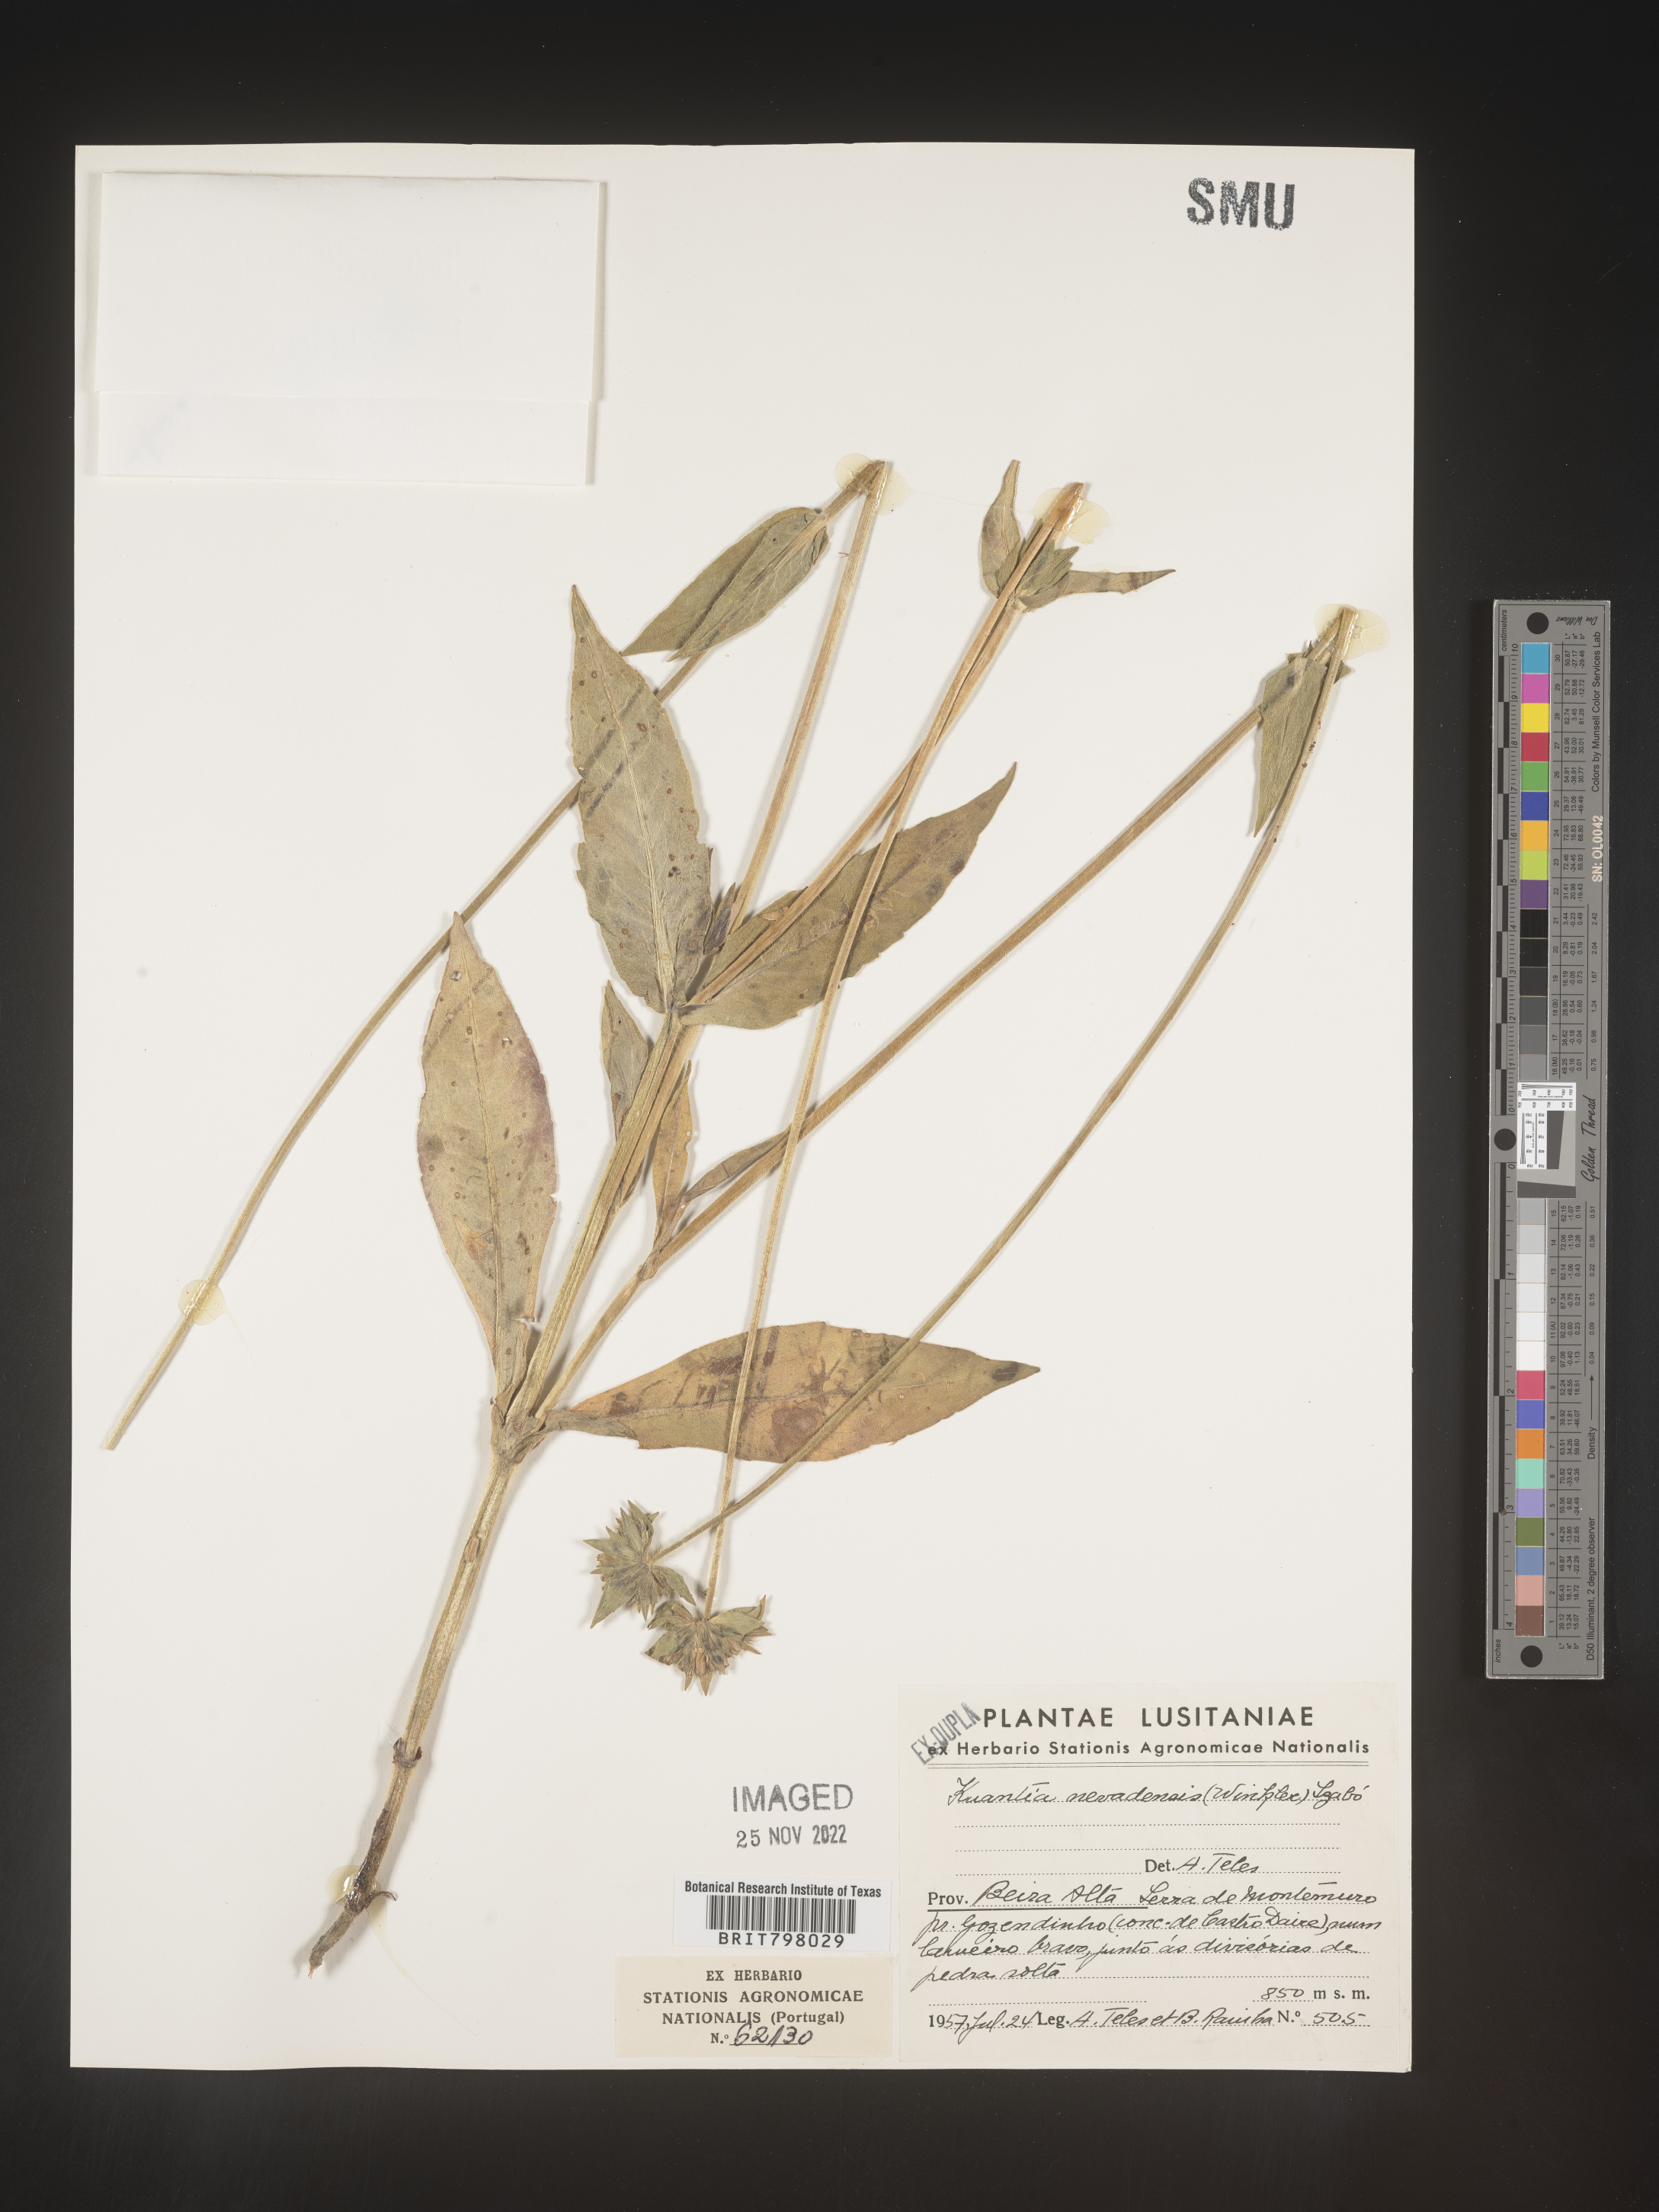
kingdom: Plantae
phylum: Tracheophyta
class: Magnoliopsida
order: Dipsacales
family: Caprifoliaceae
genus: Knautia
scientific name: Knautia
